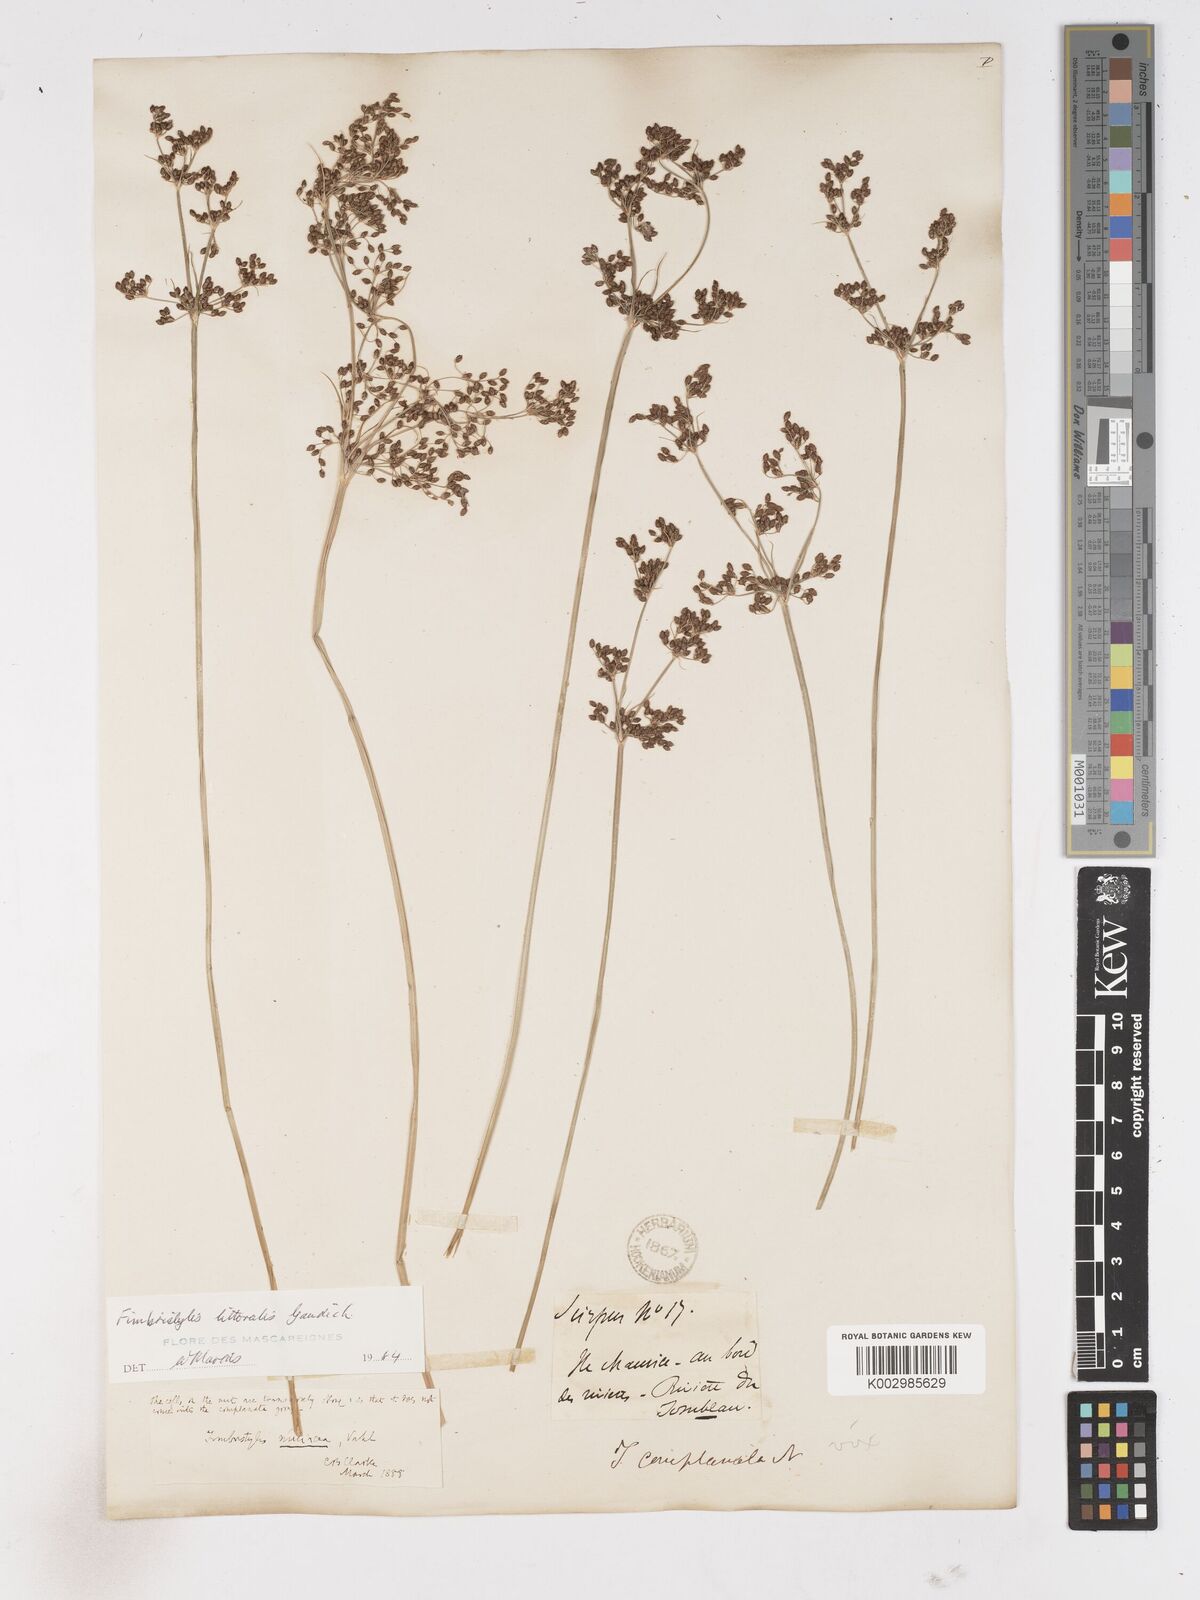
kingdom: Plantae
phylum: Tracheophyta
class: Liliopsida
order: Poales
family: Cyperaceae
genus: Fimbristylis
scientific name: Fimbristylis littoralis
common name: Fimbry
